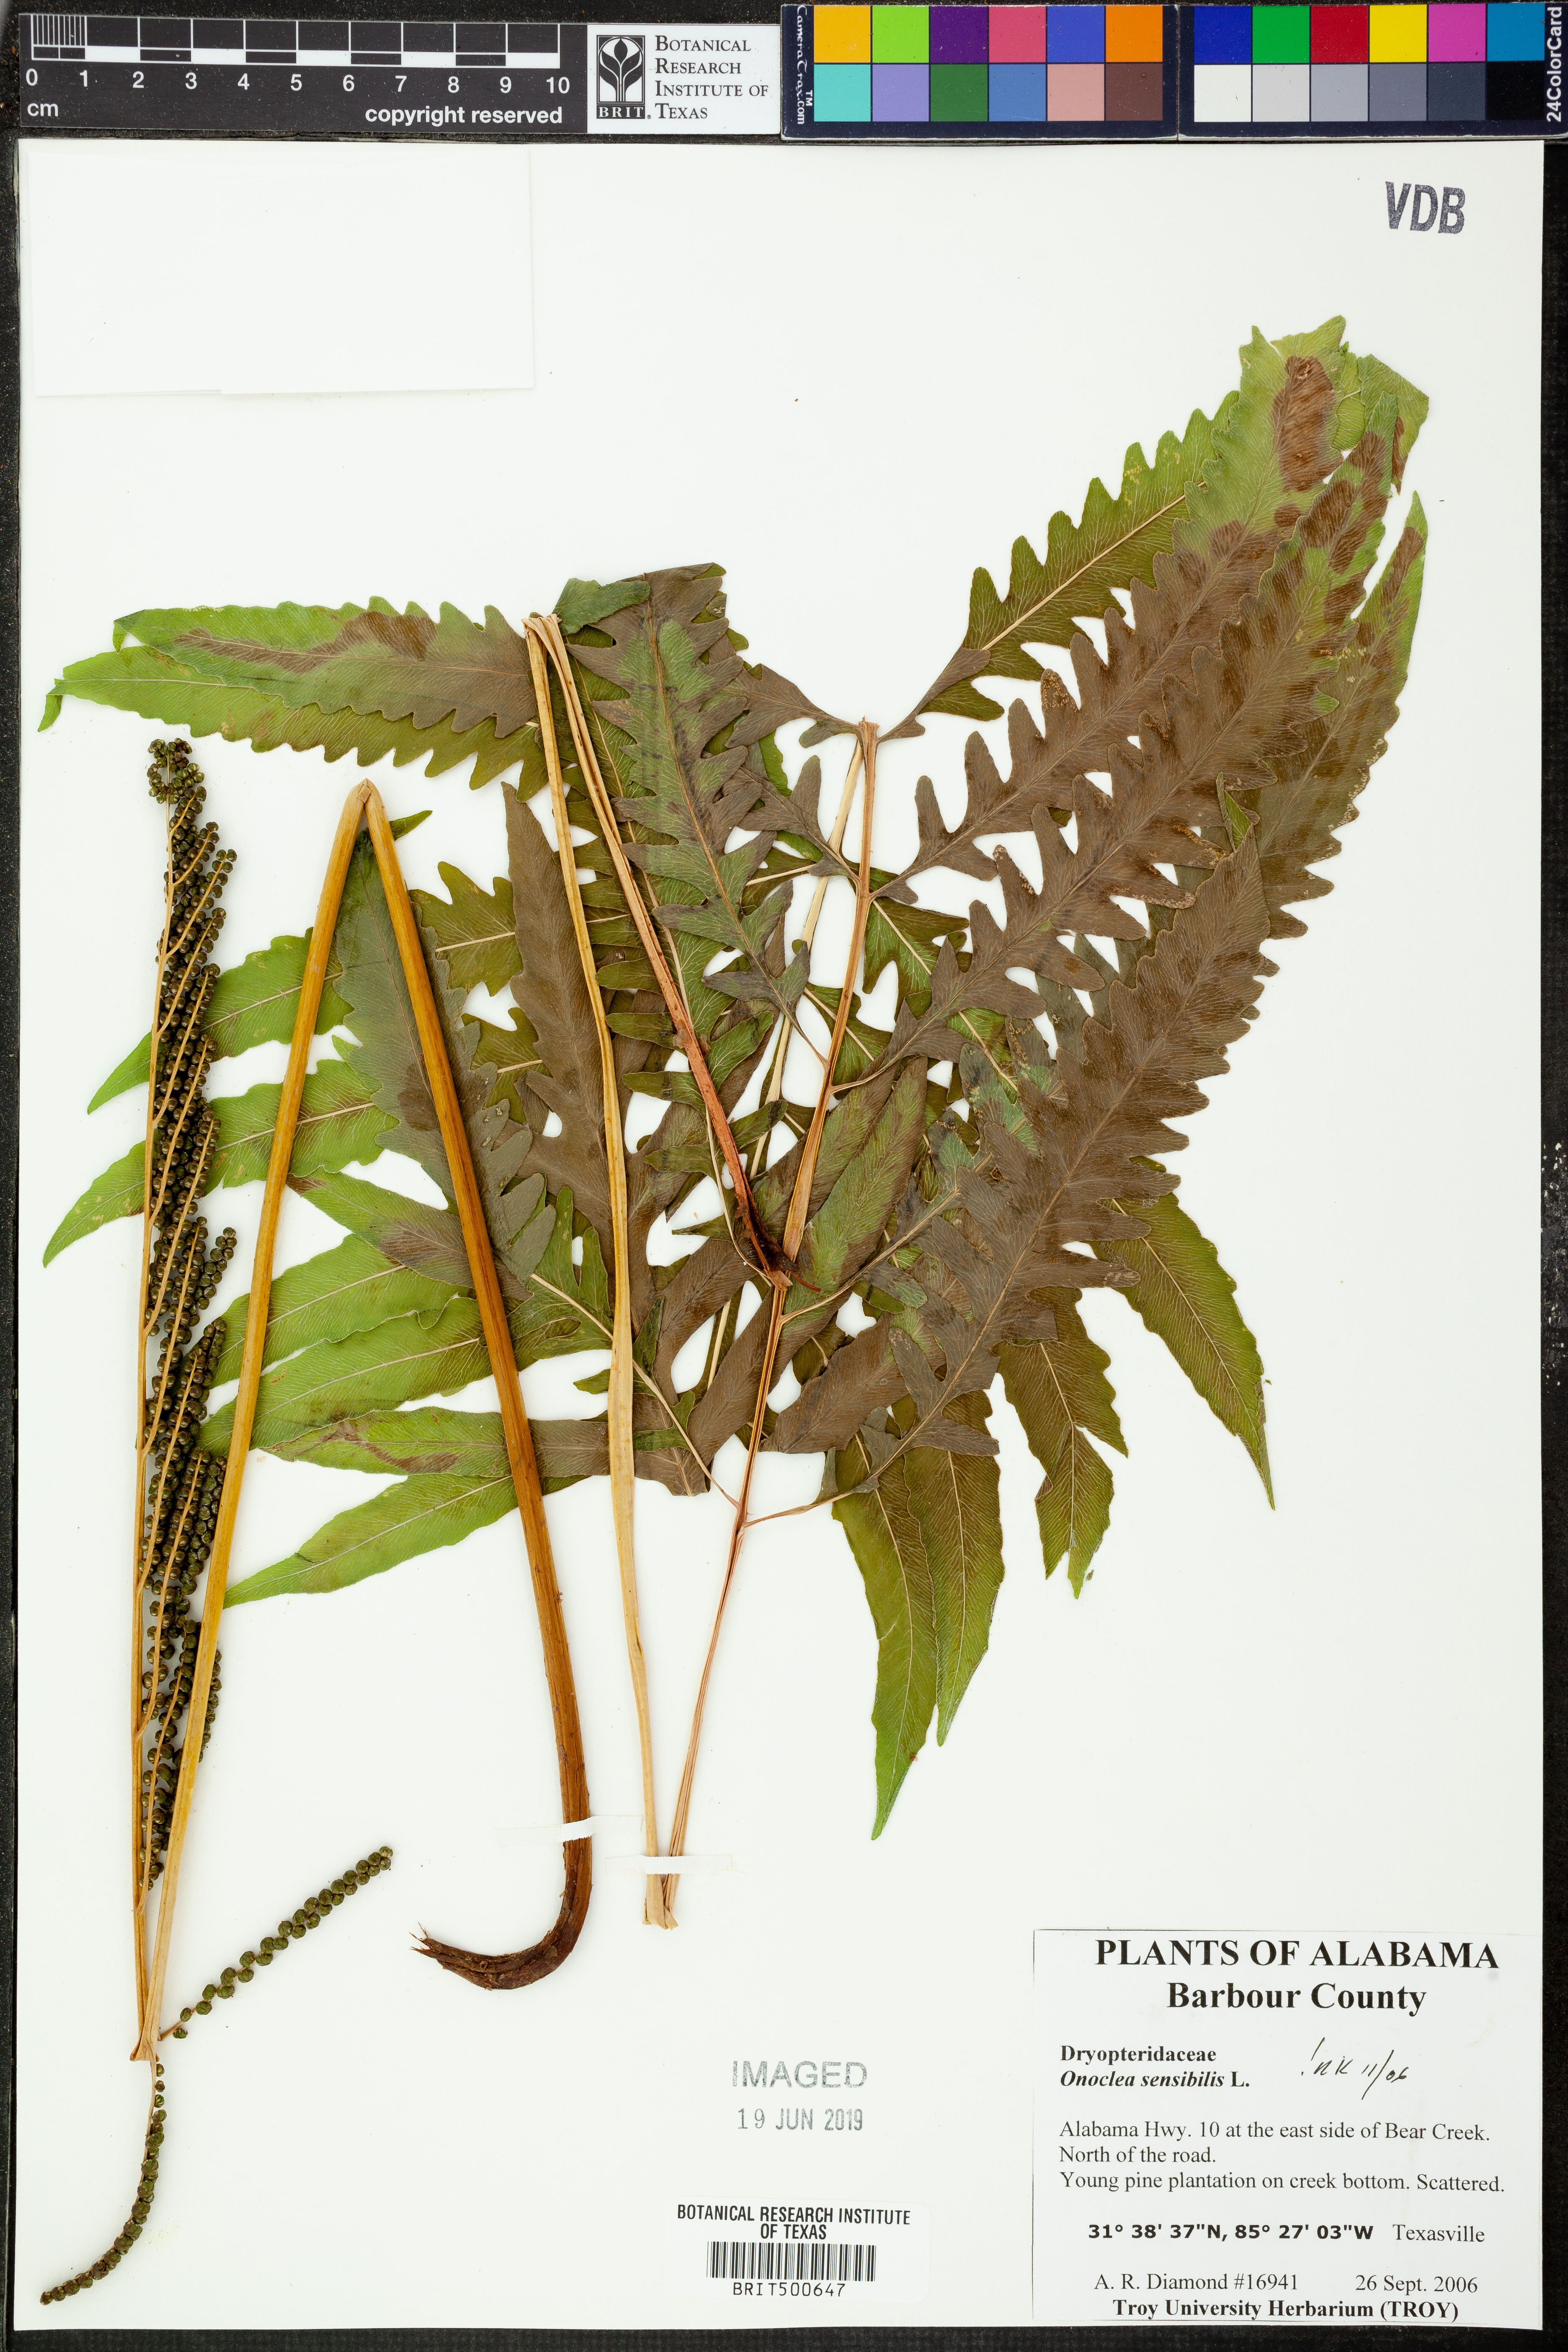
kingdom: Plantae
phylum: Tracheophyta
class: Polypodiopsida
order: Polypodiales
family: Onocleaceae
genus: Onoclea
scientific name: Onoclea sensibilis
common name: Sensitive fern
